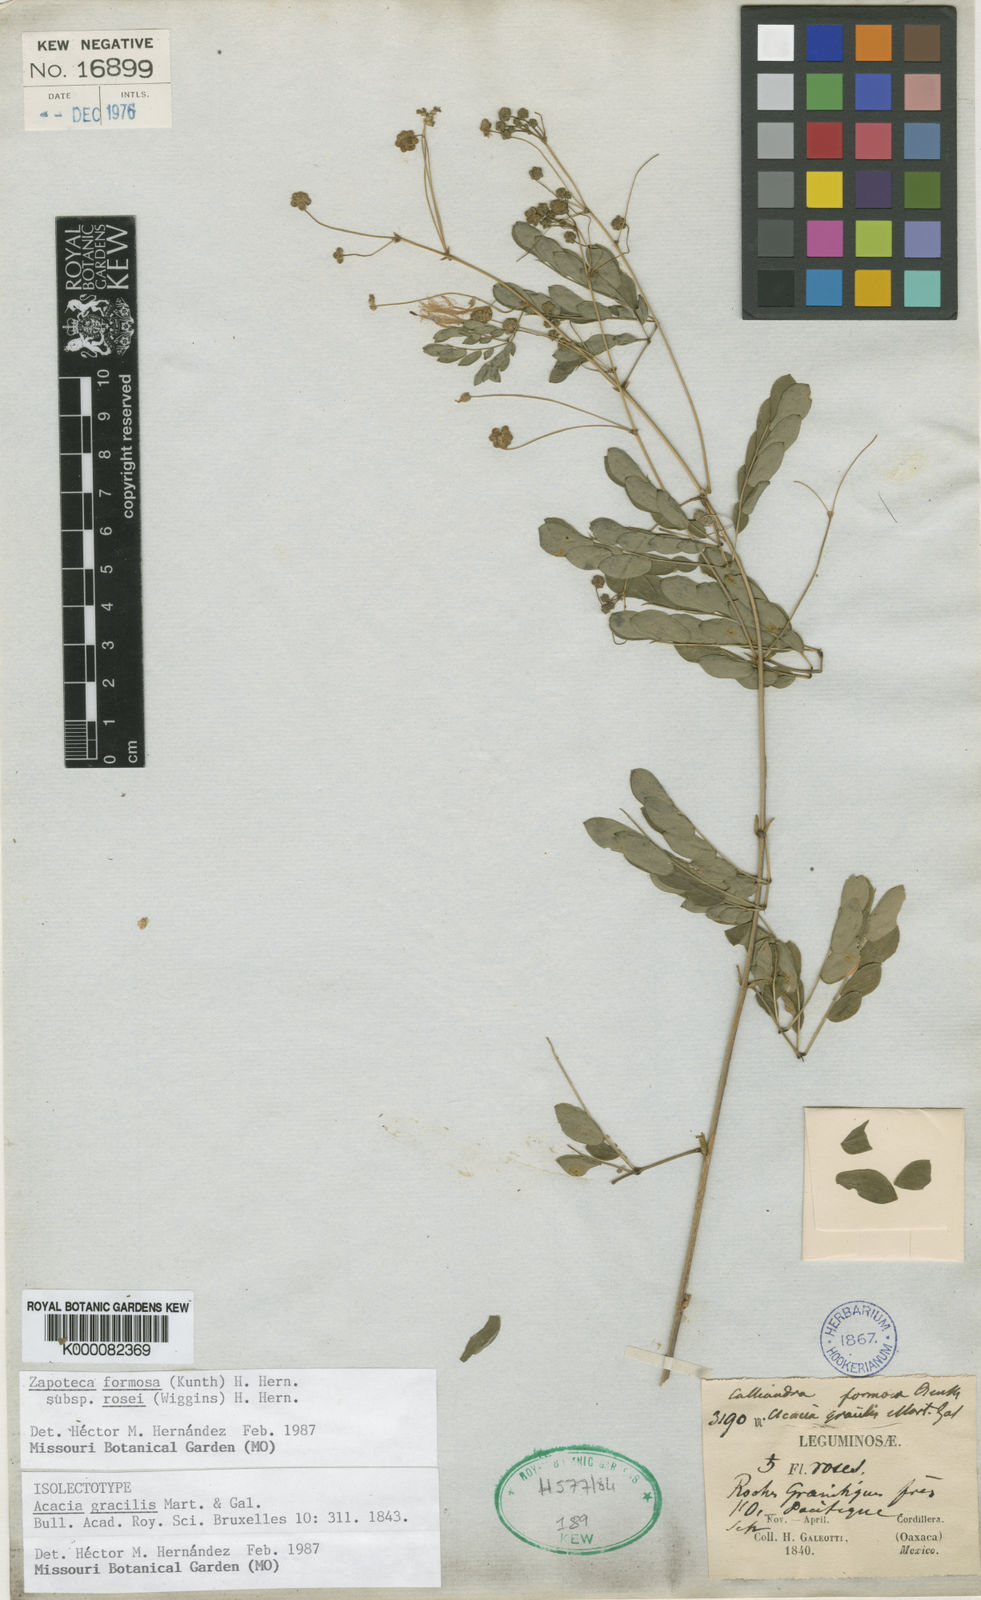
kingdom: Plantae
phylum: Tracheophyta
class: Magnoliopsida
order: Fabales
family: Fabaceae
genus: Zapoteca
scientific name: Zapoteca formosa
